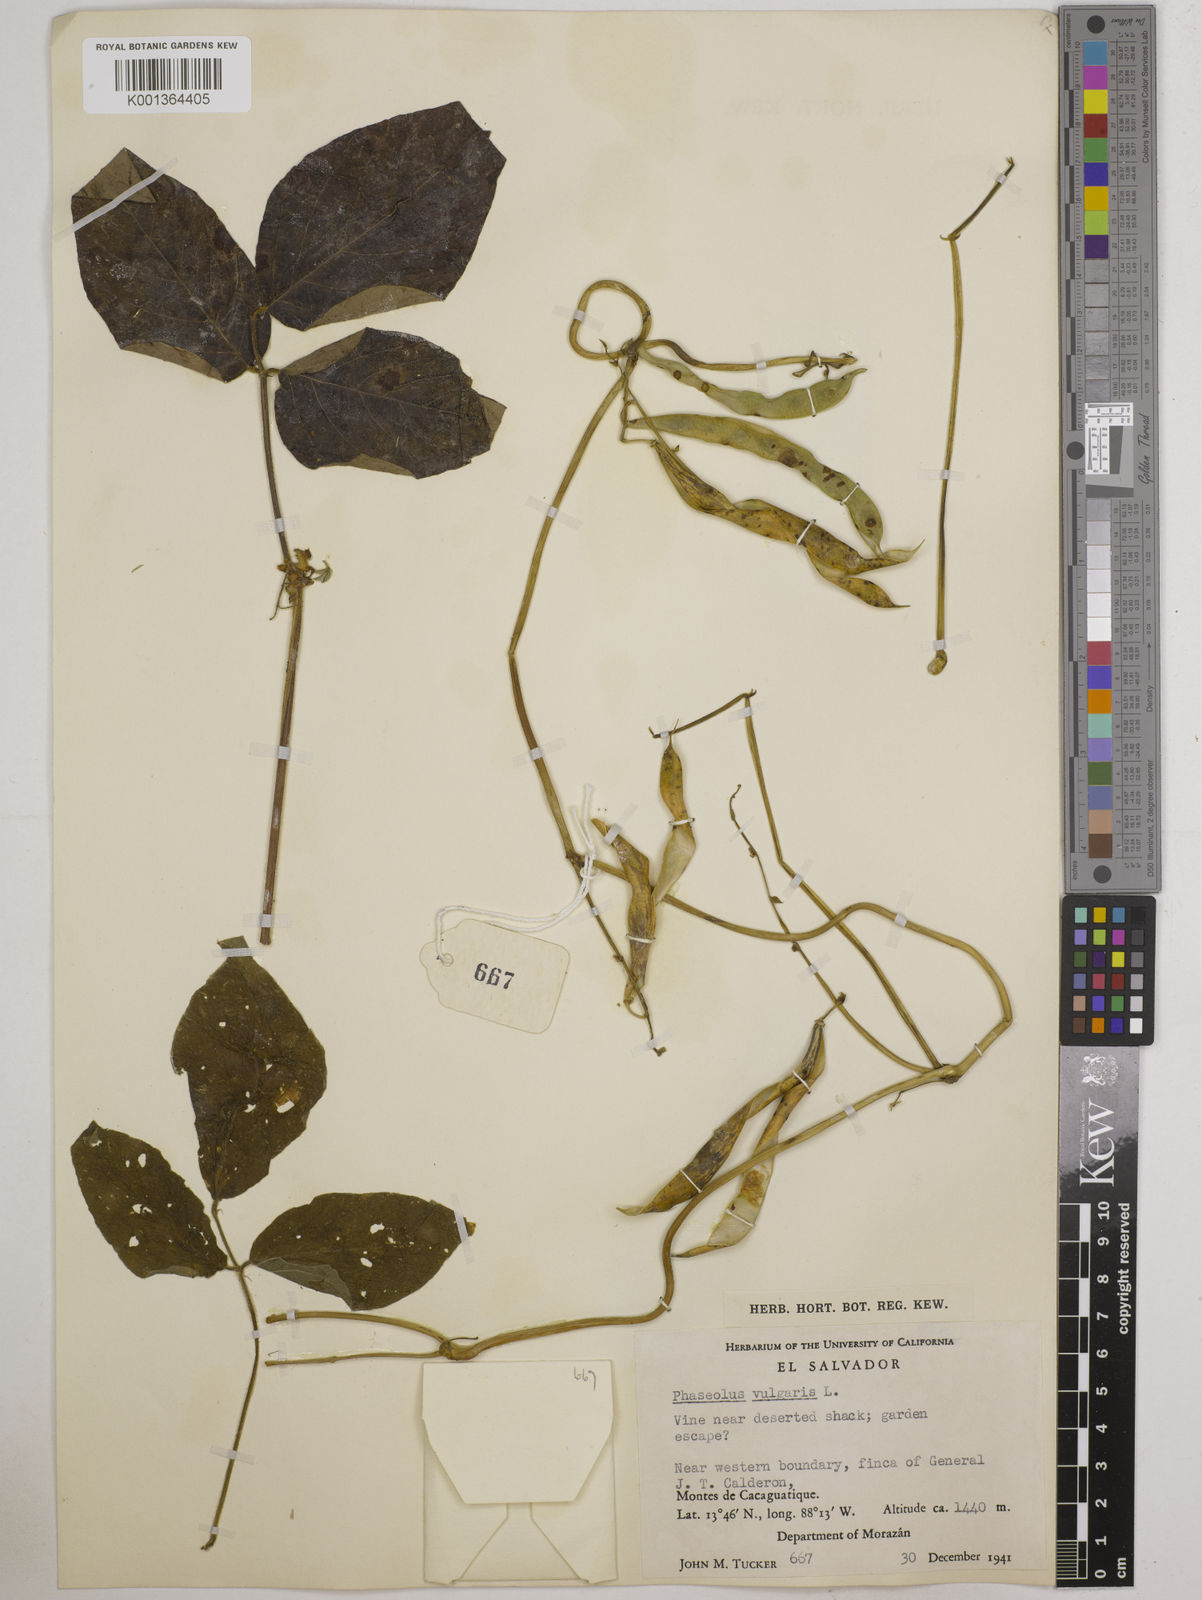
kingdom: Plantae
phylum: Tracheophyta
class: Magnoliopsida
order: Fabales
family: Fabaceae
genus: Phaseolus
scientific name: Phaseolus vulgaris
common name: Bean
